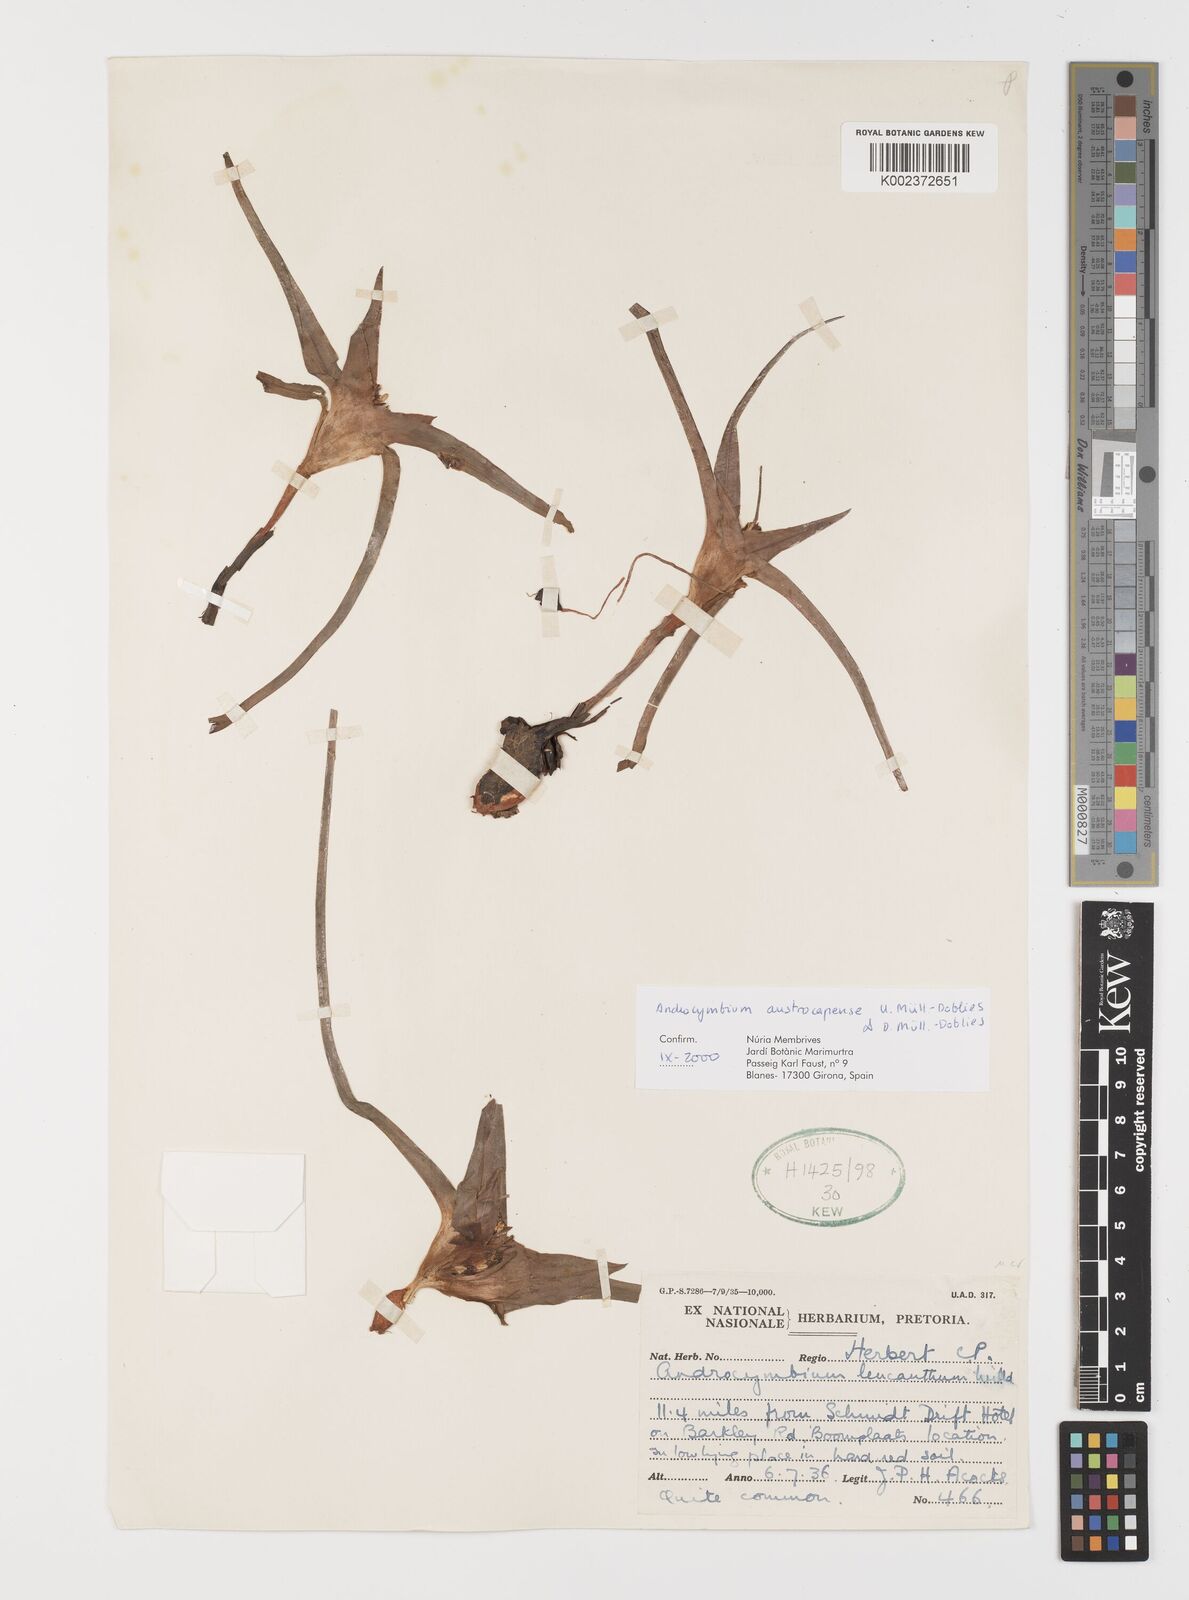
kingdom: Plantae
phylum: Tracheophyta
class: Liliopsida
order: Liliales
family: Colchicaceae
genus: Colchicum
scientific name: Colchicum austrocapense
